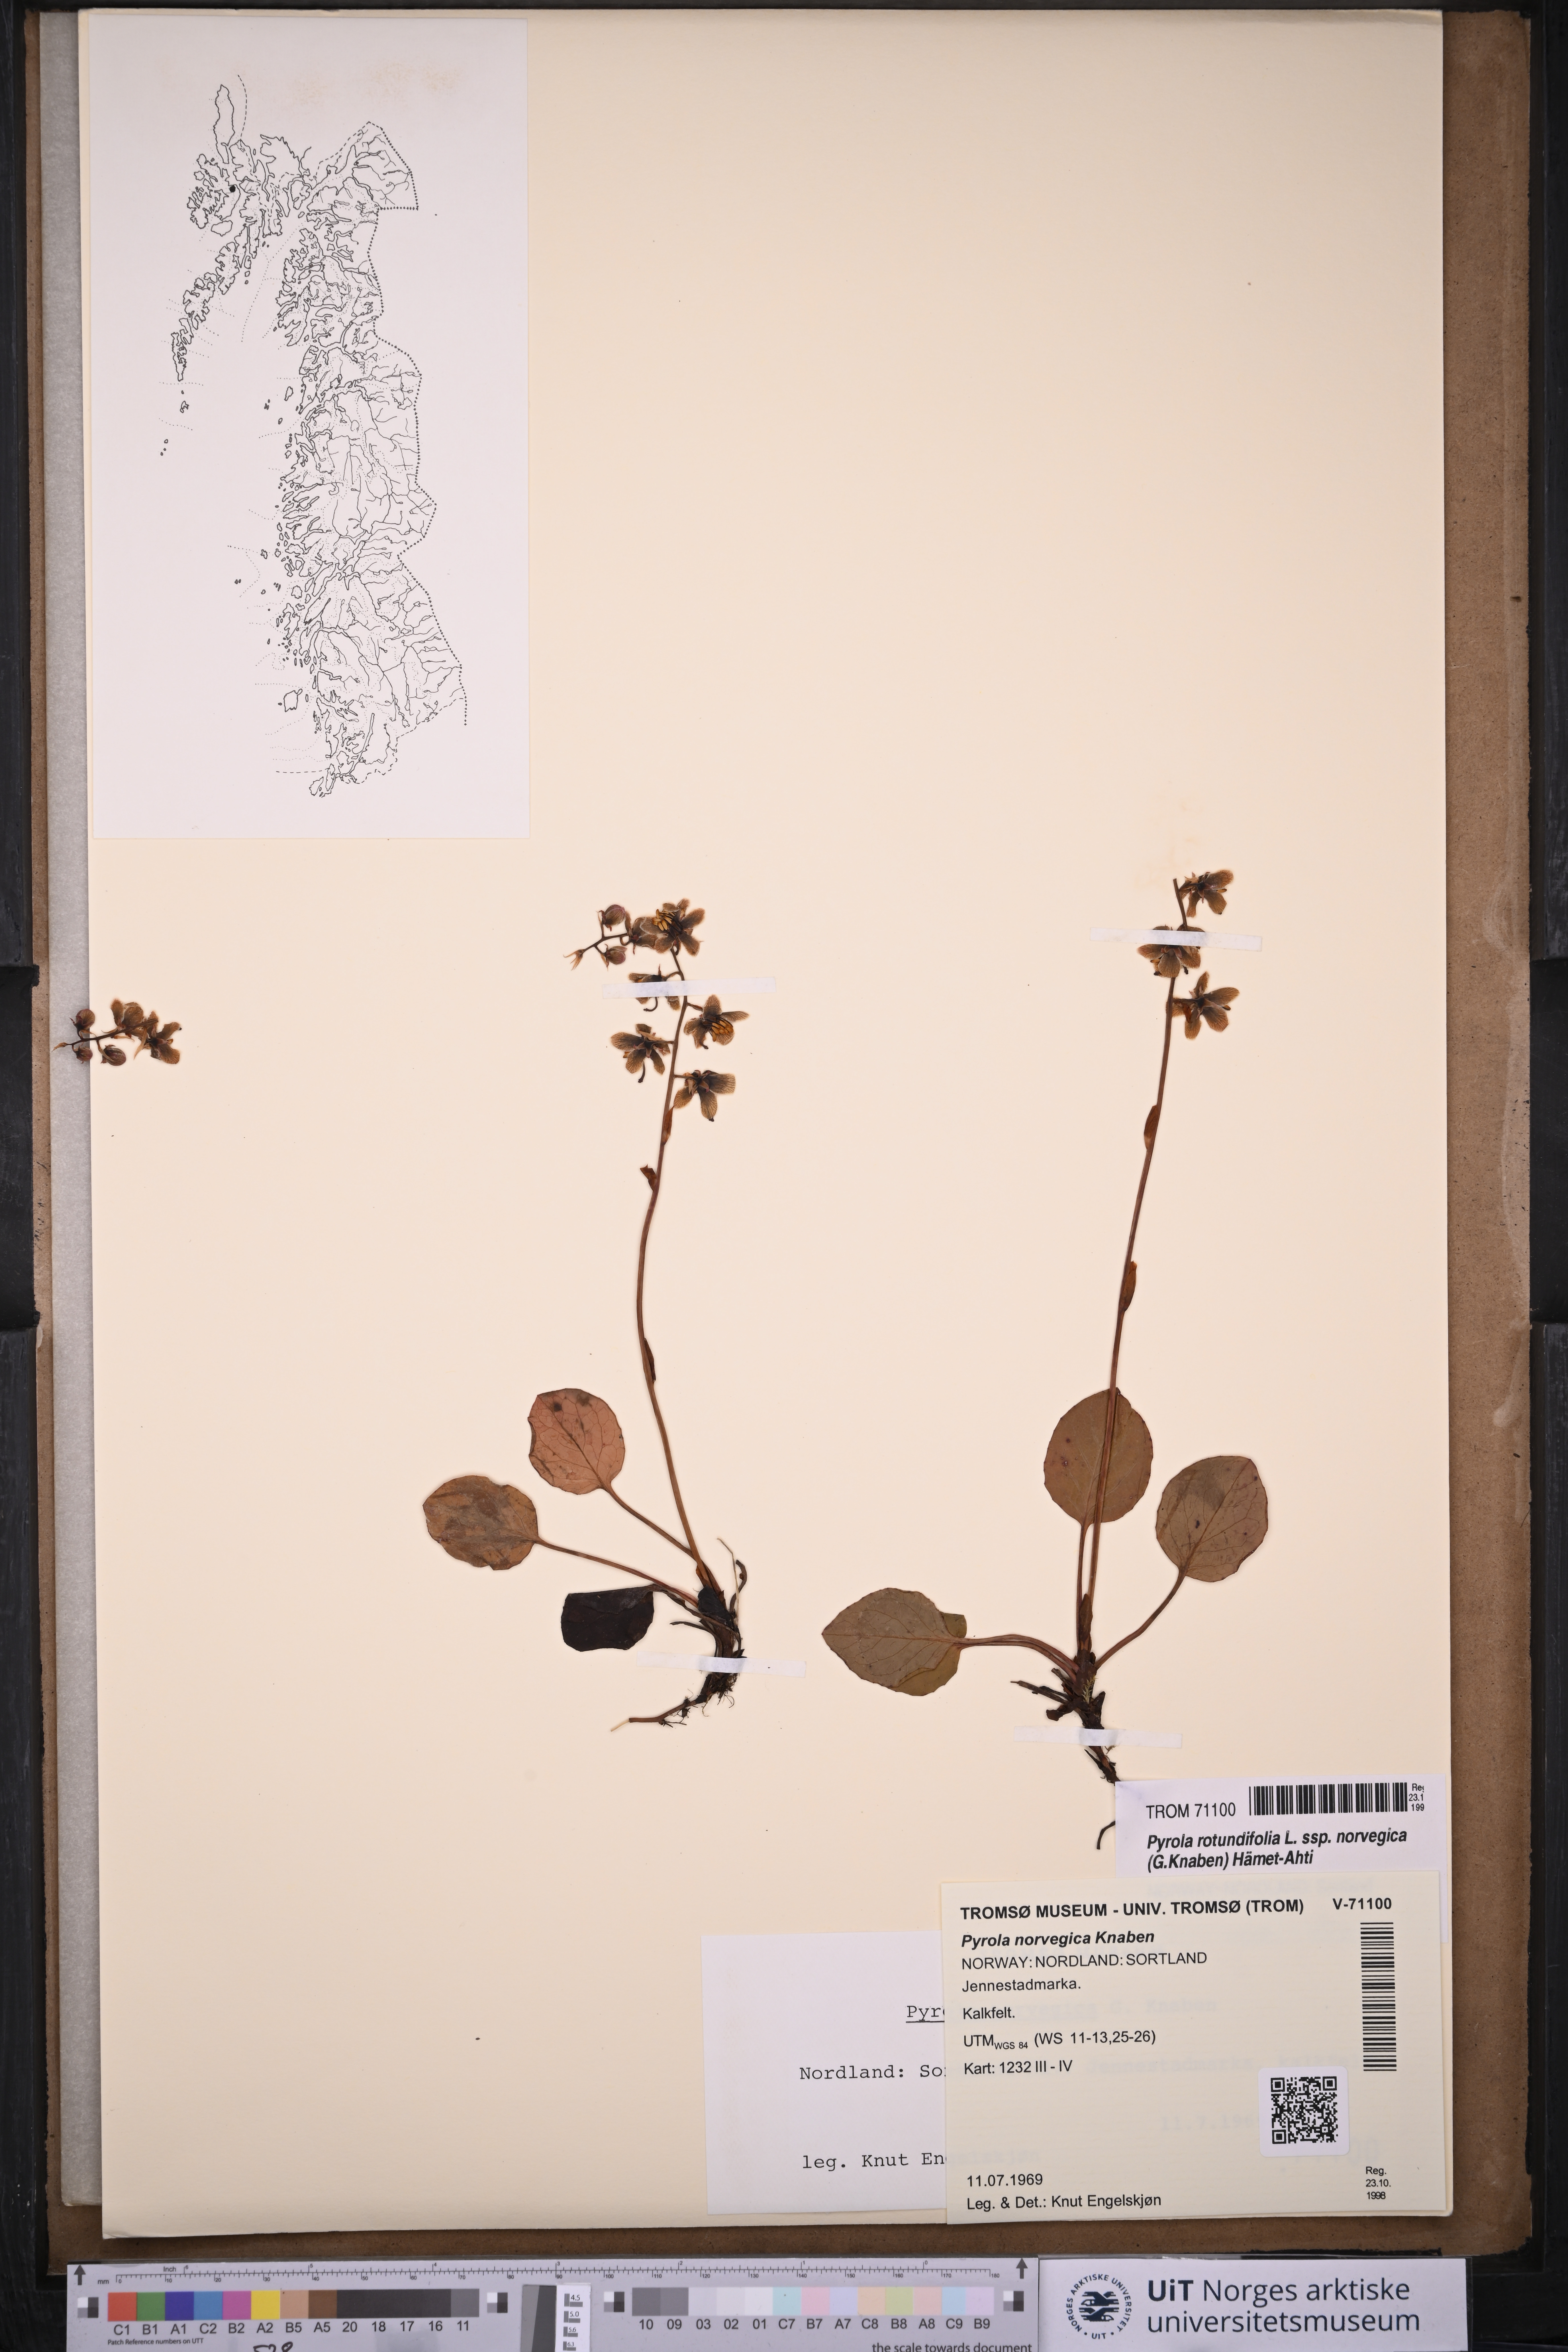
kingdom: Plantae
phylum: Tracheophyta
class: Magnoliopsida
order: Ericales
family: Ericaceae
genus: Pyrola
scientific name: Pyrola rotundifolia
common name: Round-leaved wintergreen
